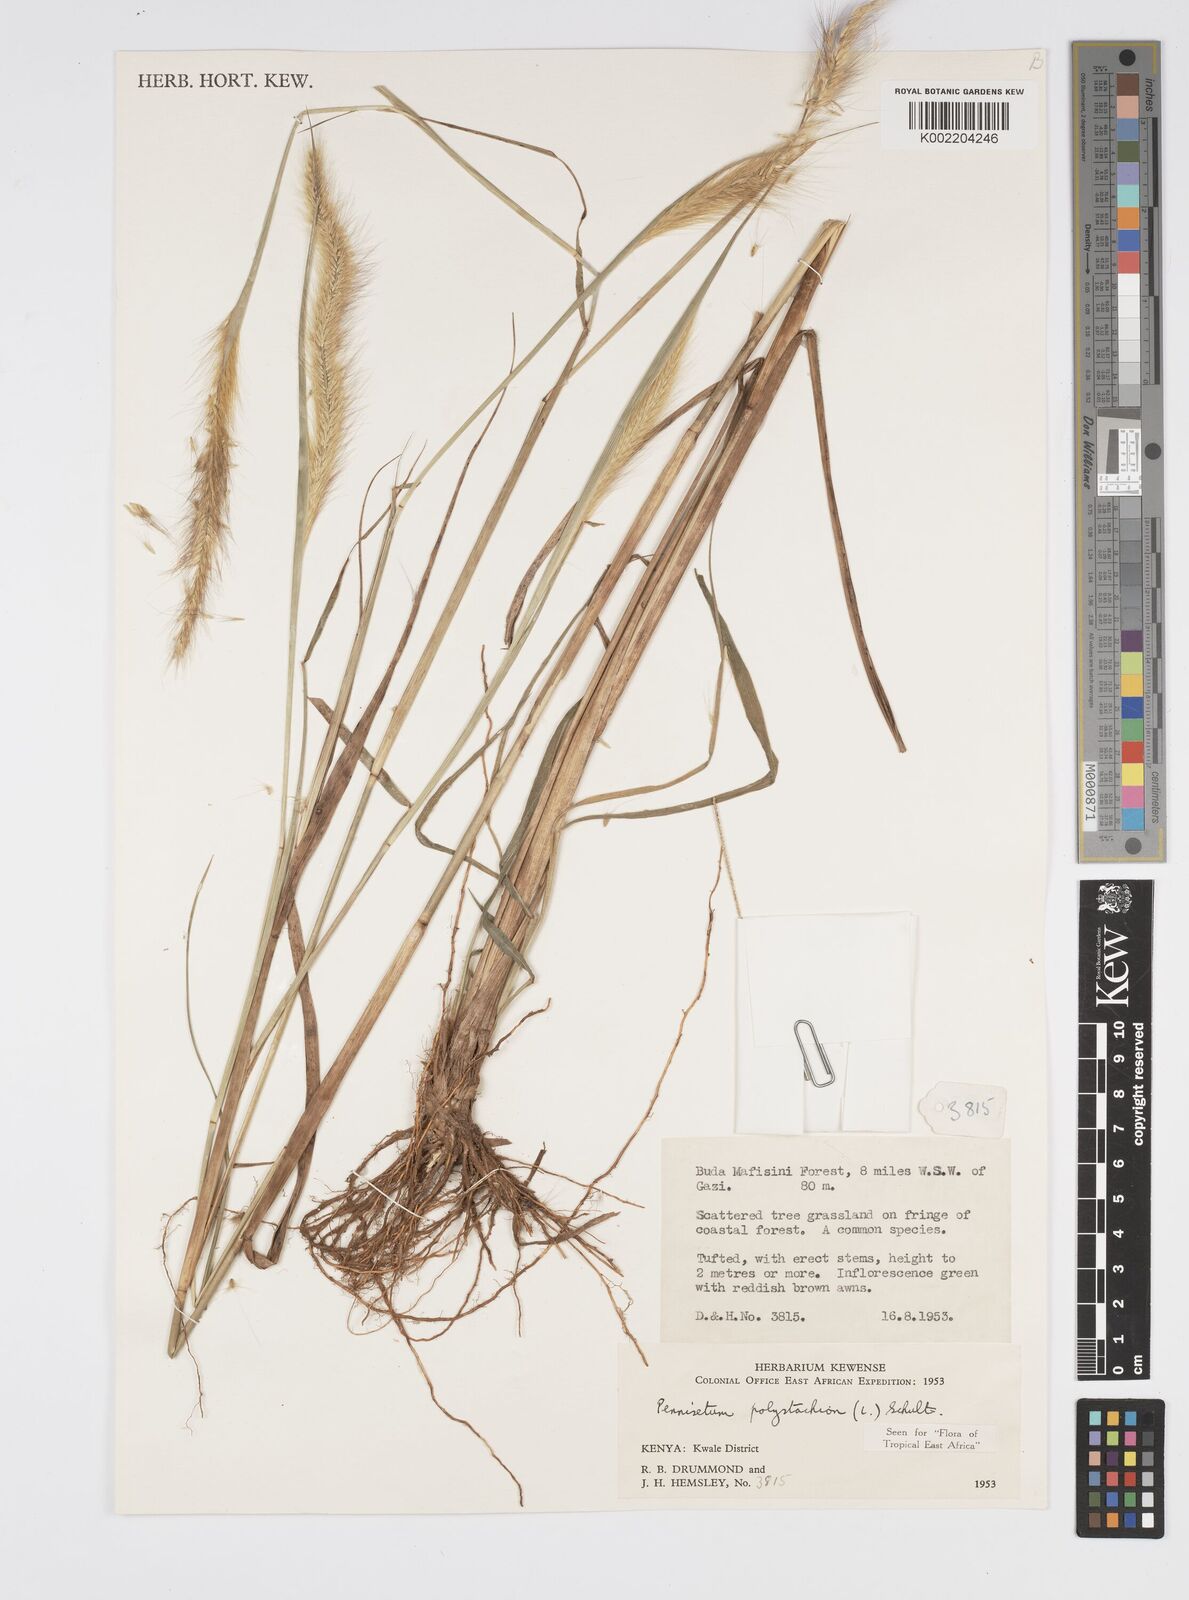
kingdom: Plantae
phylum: Tracheophyta
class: Liliopsida
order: Poales
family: Poaceae
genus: Setaria
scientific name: Setaria parviflora
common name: Knotroot bristle-grass
